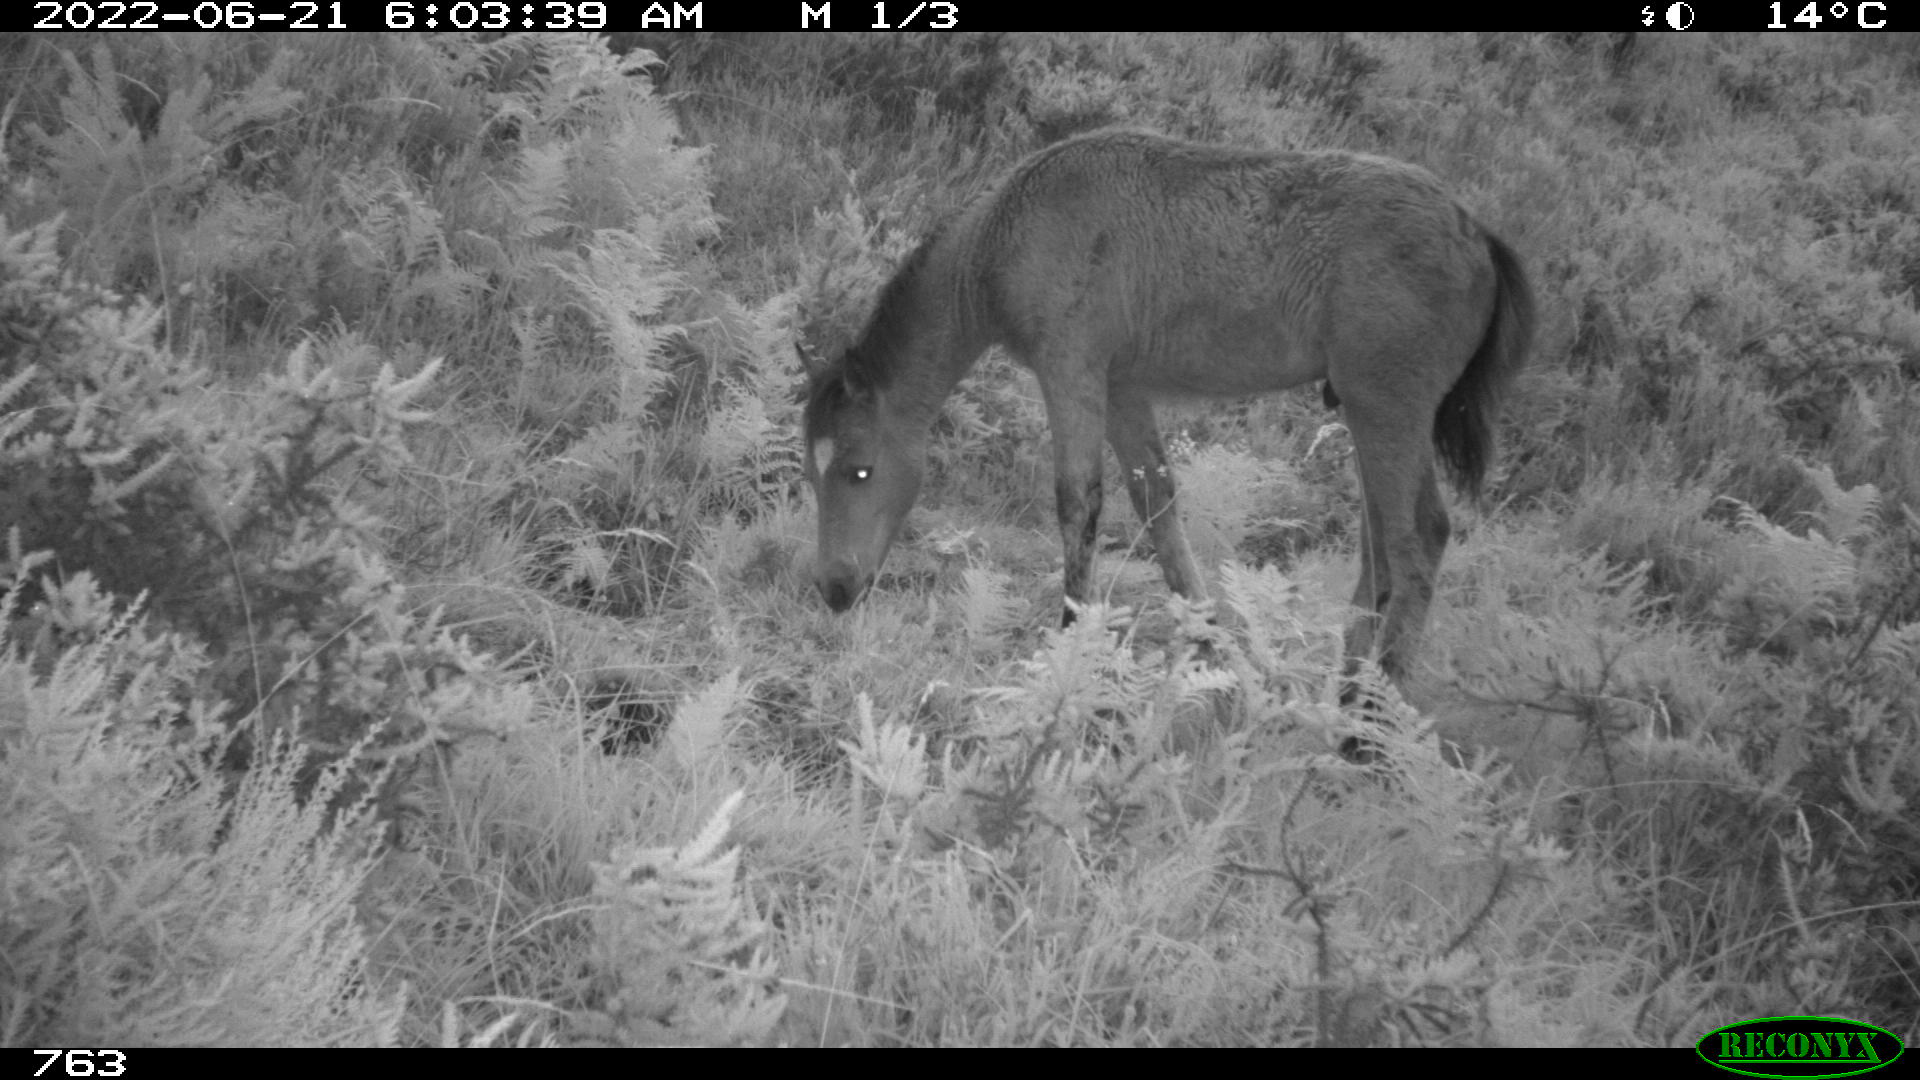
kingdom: Animalia
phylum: Chordata
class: Mammalia
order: Perissodactyla
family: Equidae
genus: Equus
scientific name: Equus caballus
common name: Horse
